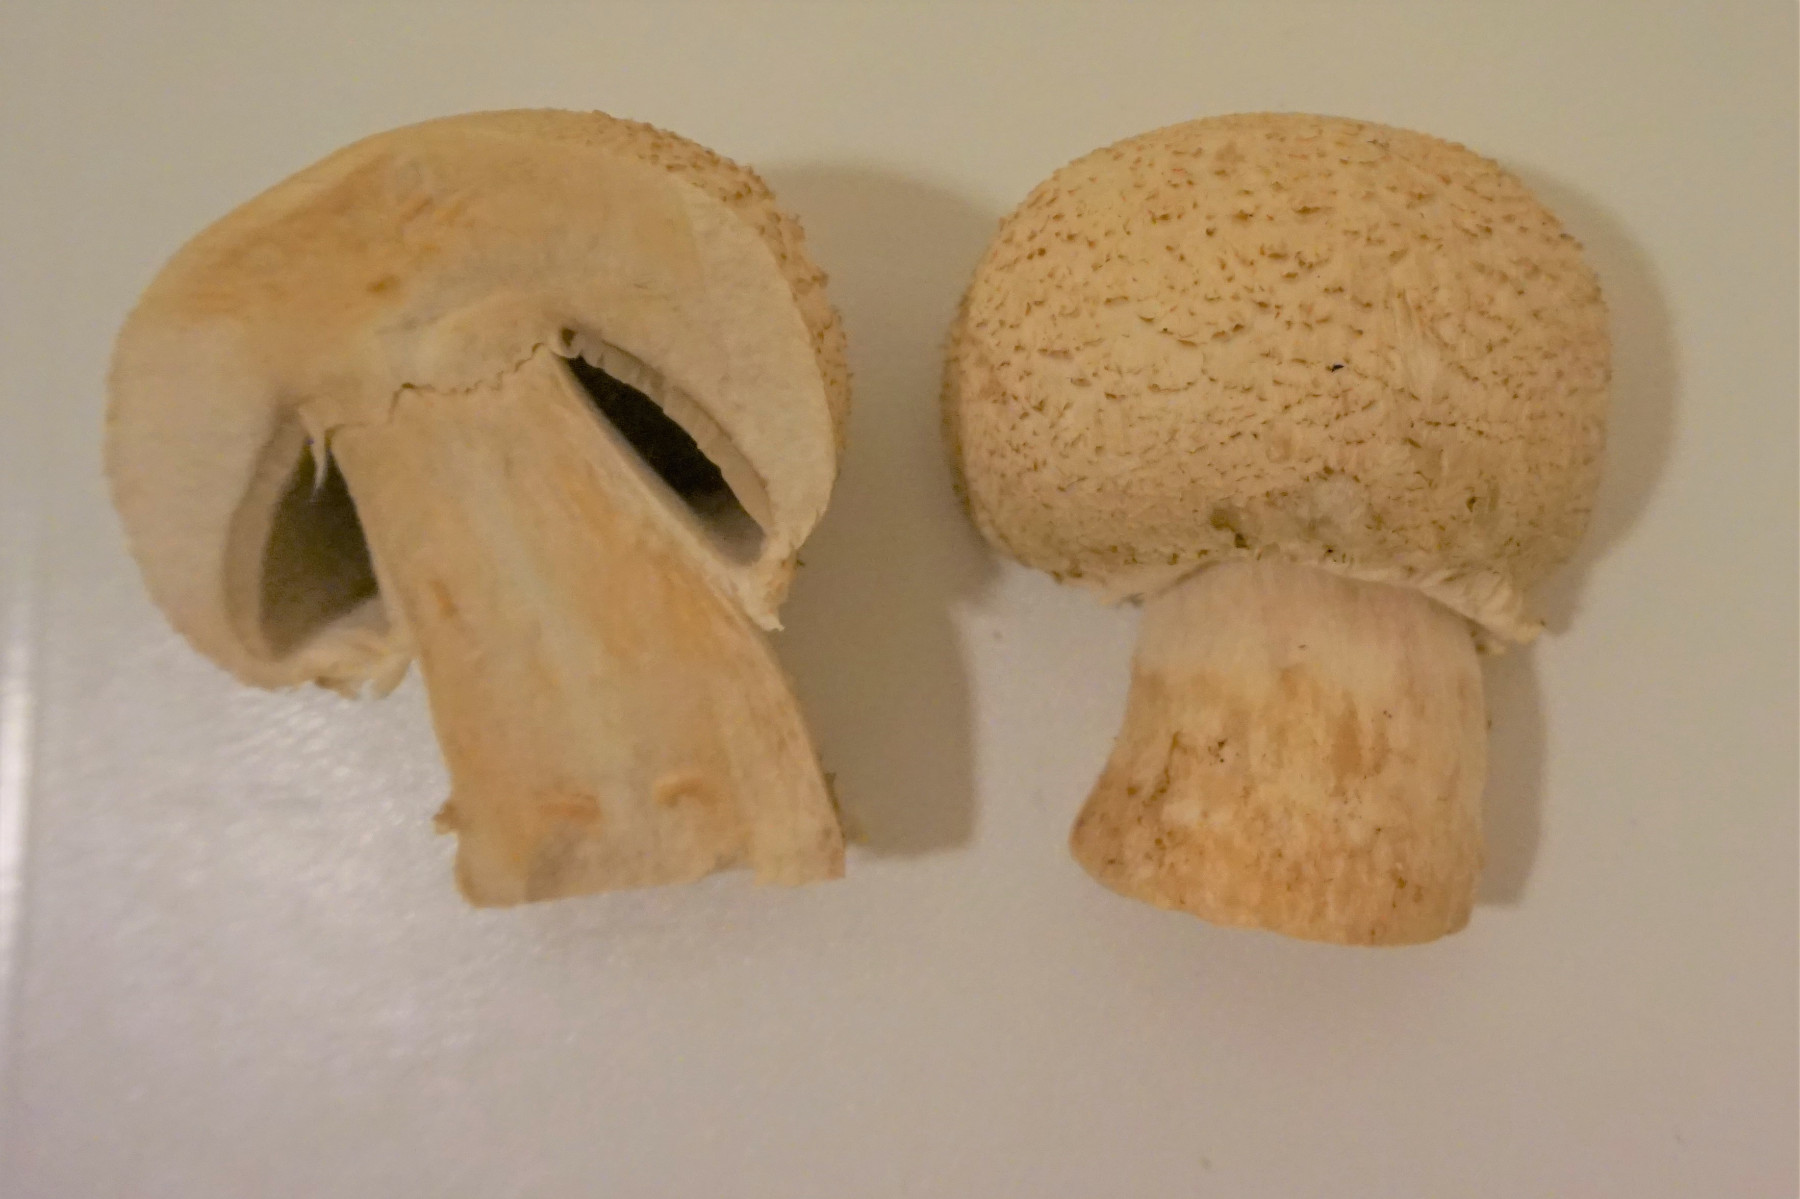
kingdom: Fungi
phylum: Basidiomycota
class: Agaricomycetes
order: Agaricales
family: Agaricaceae
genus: Agaricus
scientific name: Agaricus
